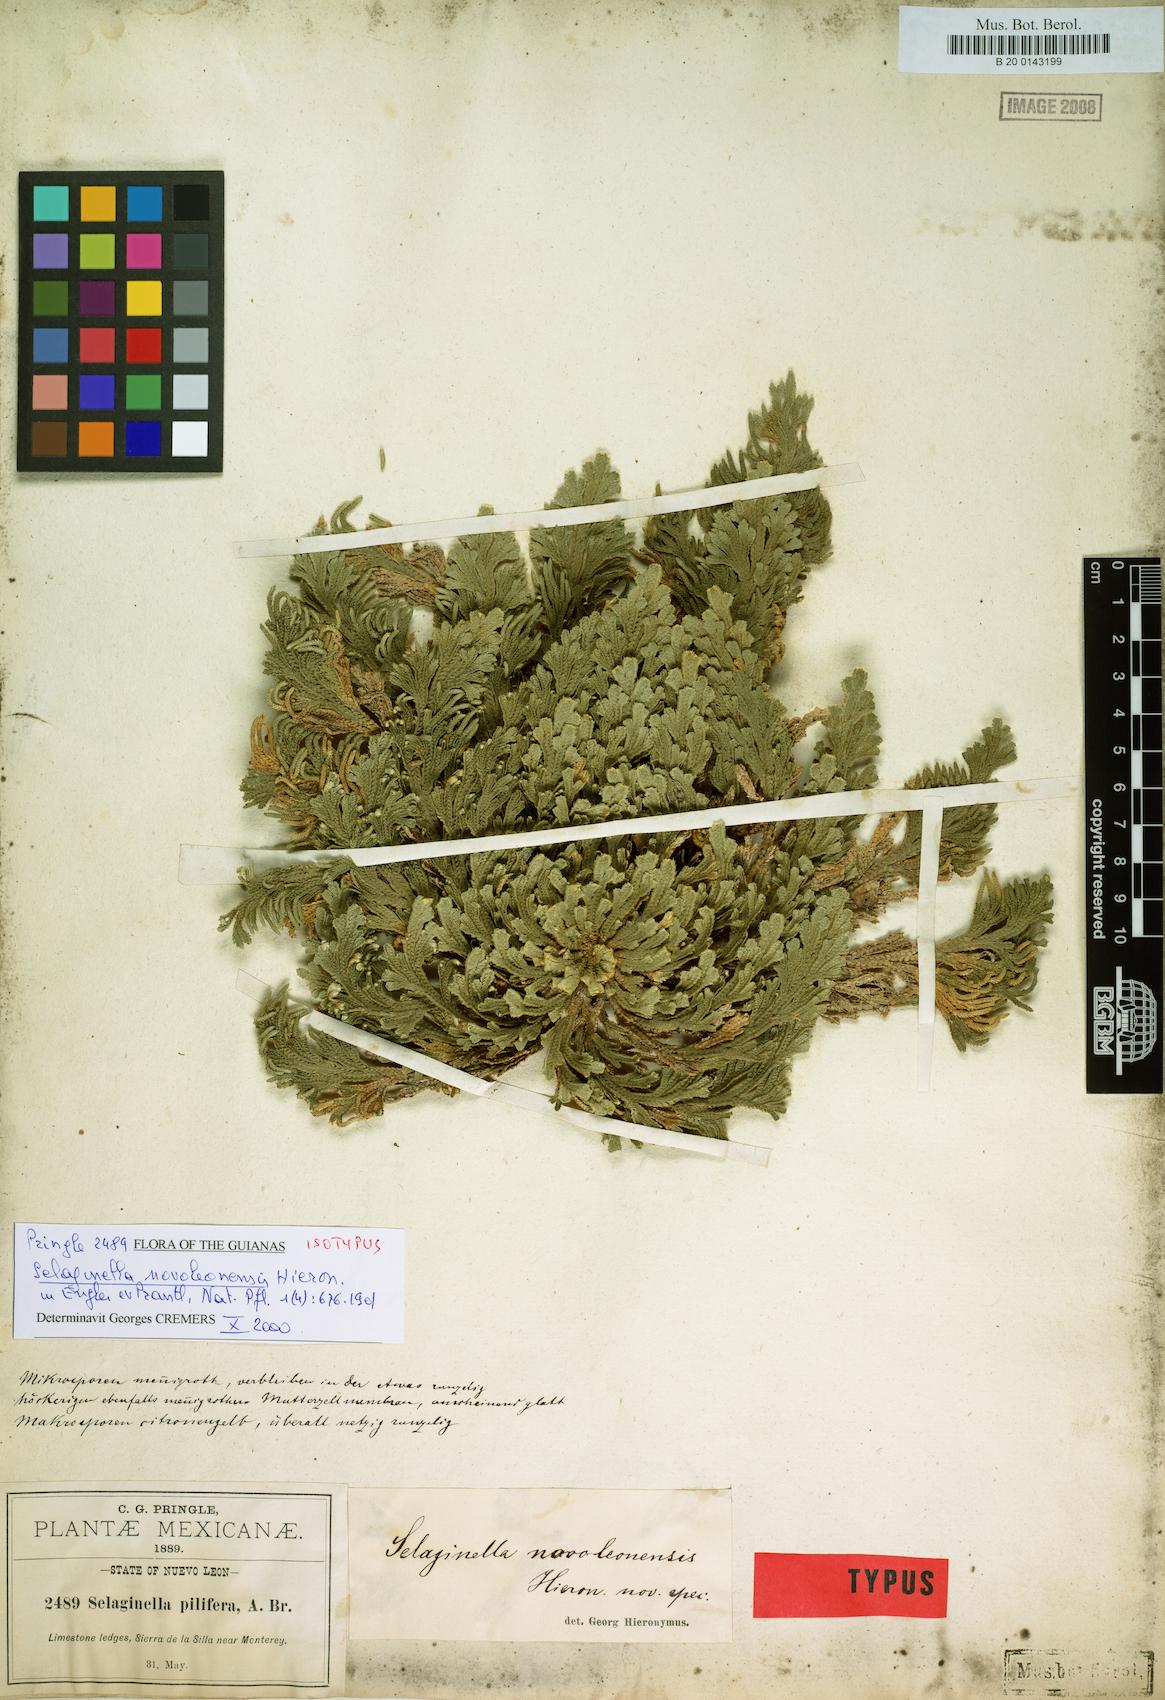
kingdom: Plantae
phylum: Tracheophyta
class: Lycopodiopsida
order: Selaginellales
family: Selaginellaceae
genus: Selaginella
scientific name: Selaginella novoleonensis
